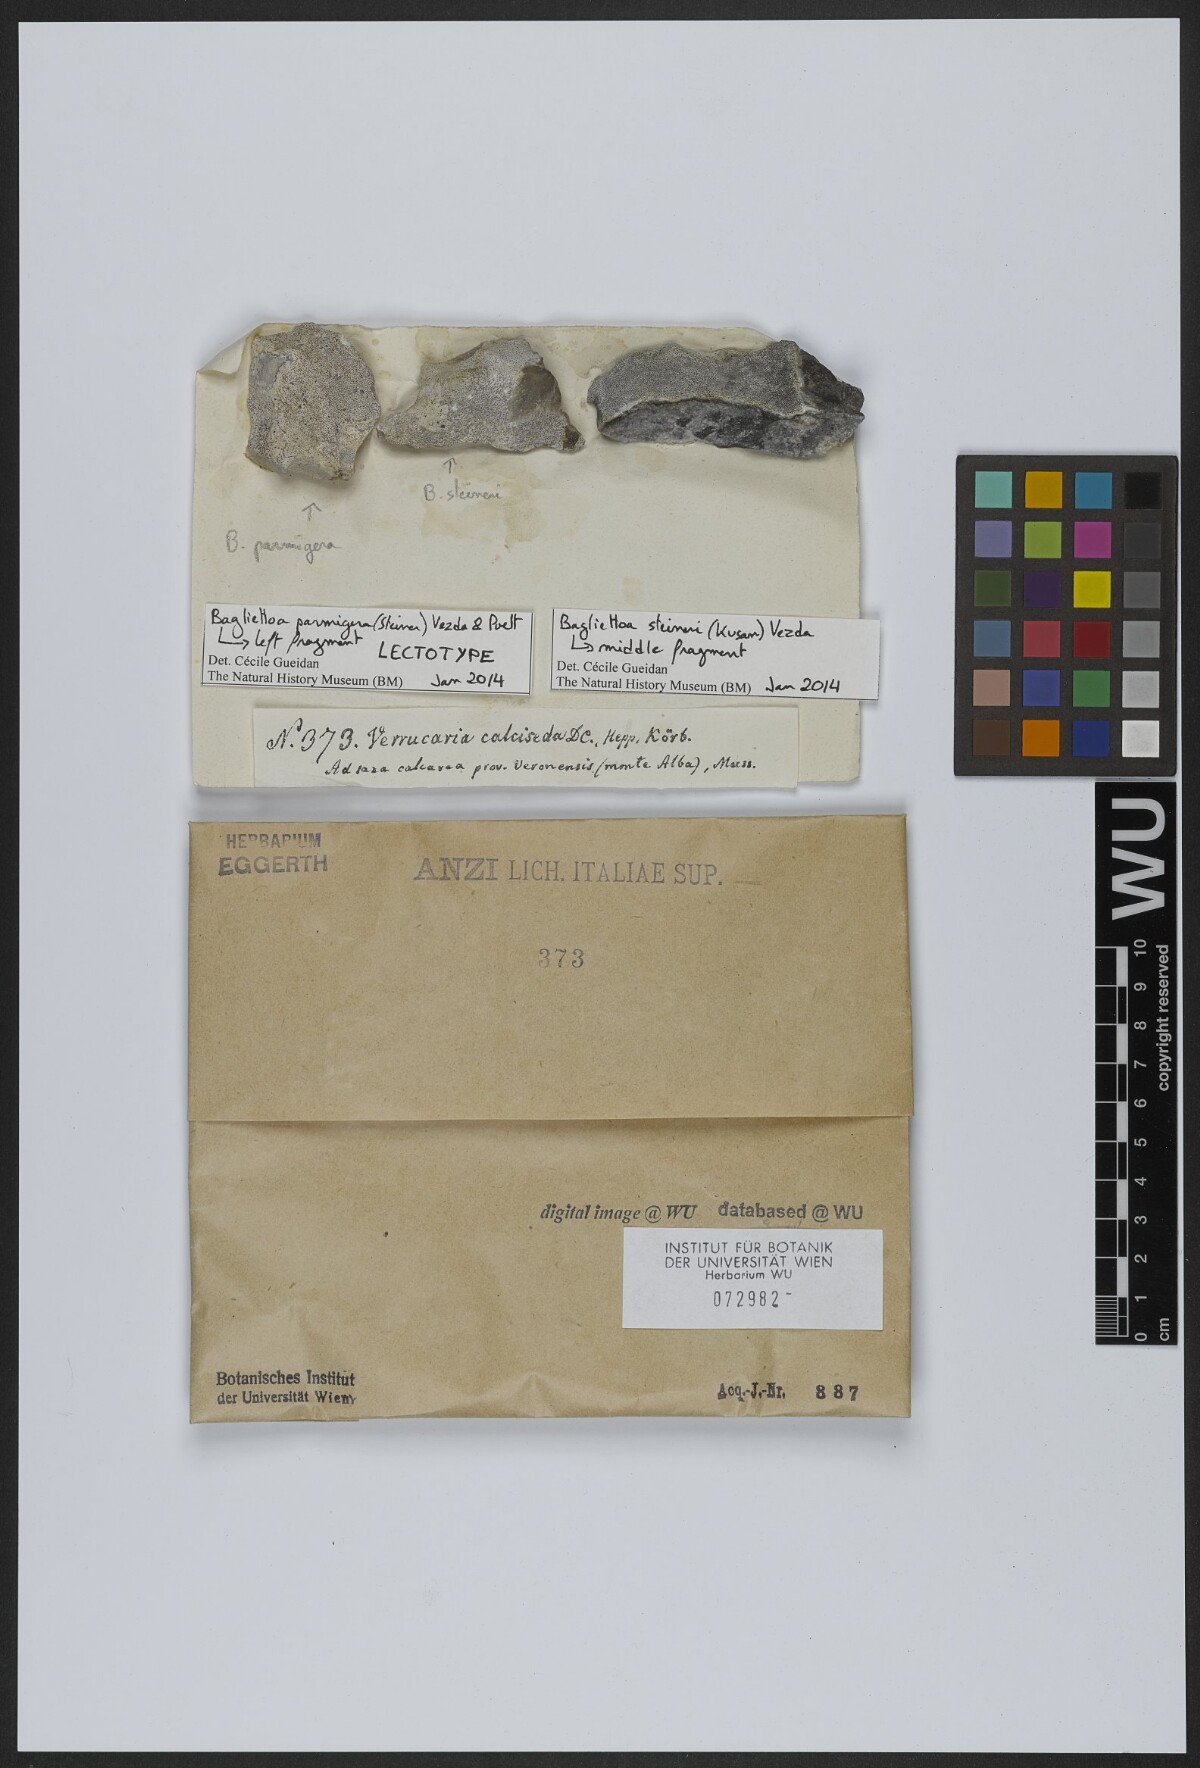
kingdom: Fungi
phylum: Ascomycota
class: Eurotiomycetes
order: Verrucariales
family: Verrucariaceae
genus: Bagliettoa
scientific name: Bagliettoa parmigera
